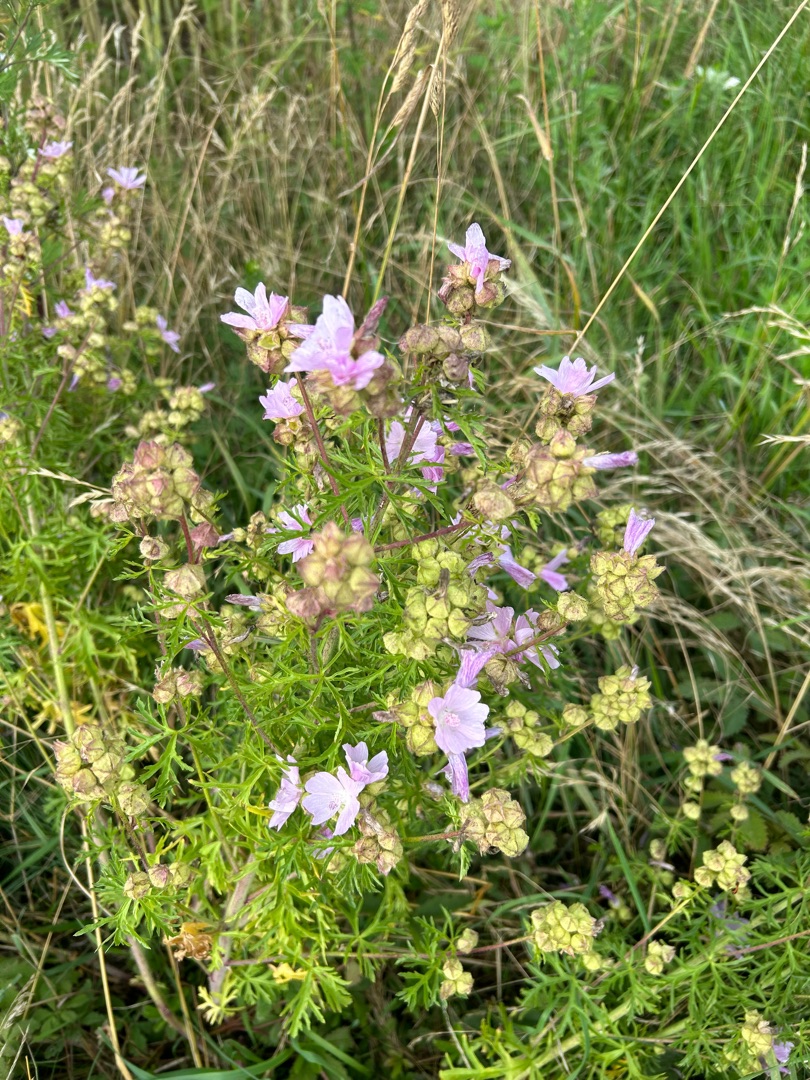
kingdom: Plantae
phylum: Tracheophyta
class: Magnoliopsida
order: Malvales
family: Malvaceae
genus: Malva
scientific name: Malva moschata
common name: Moskus-katost
